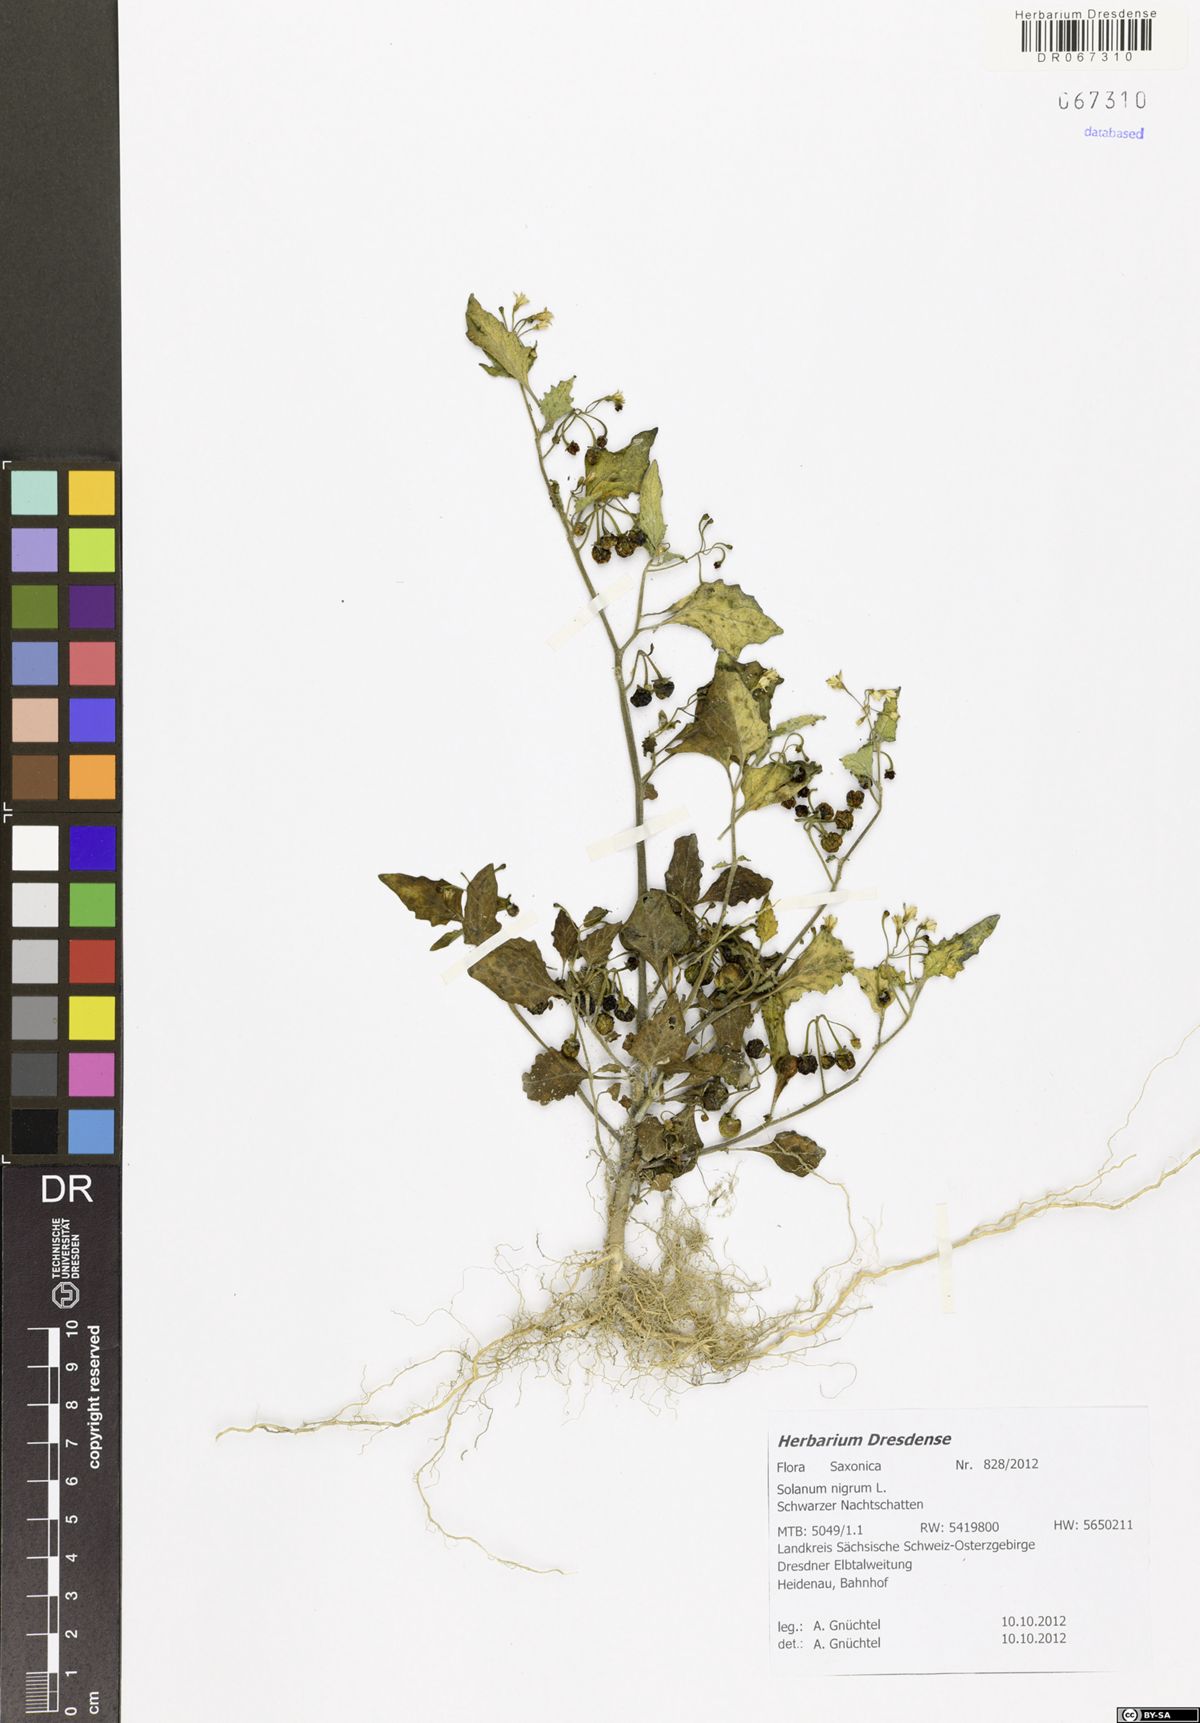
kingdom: Plantae
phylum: Tracheophyta
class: Magnoliopsida
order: Solanales
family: Solanaceae
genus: Solanum
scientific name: Solanum nigrum
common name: Black nightshade
